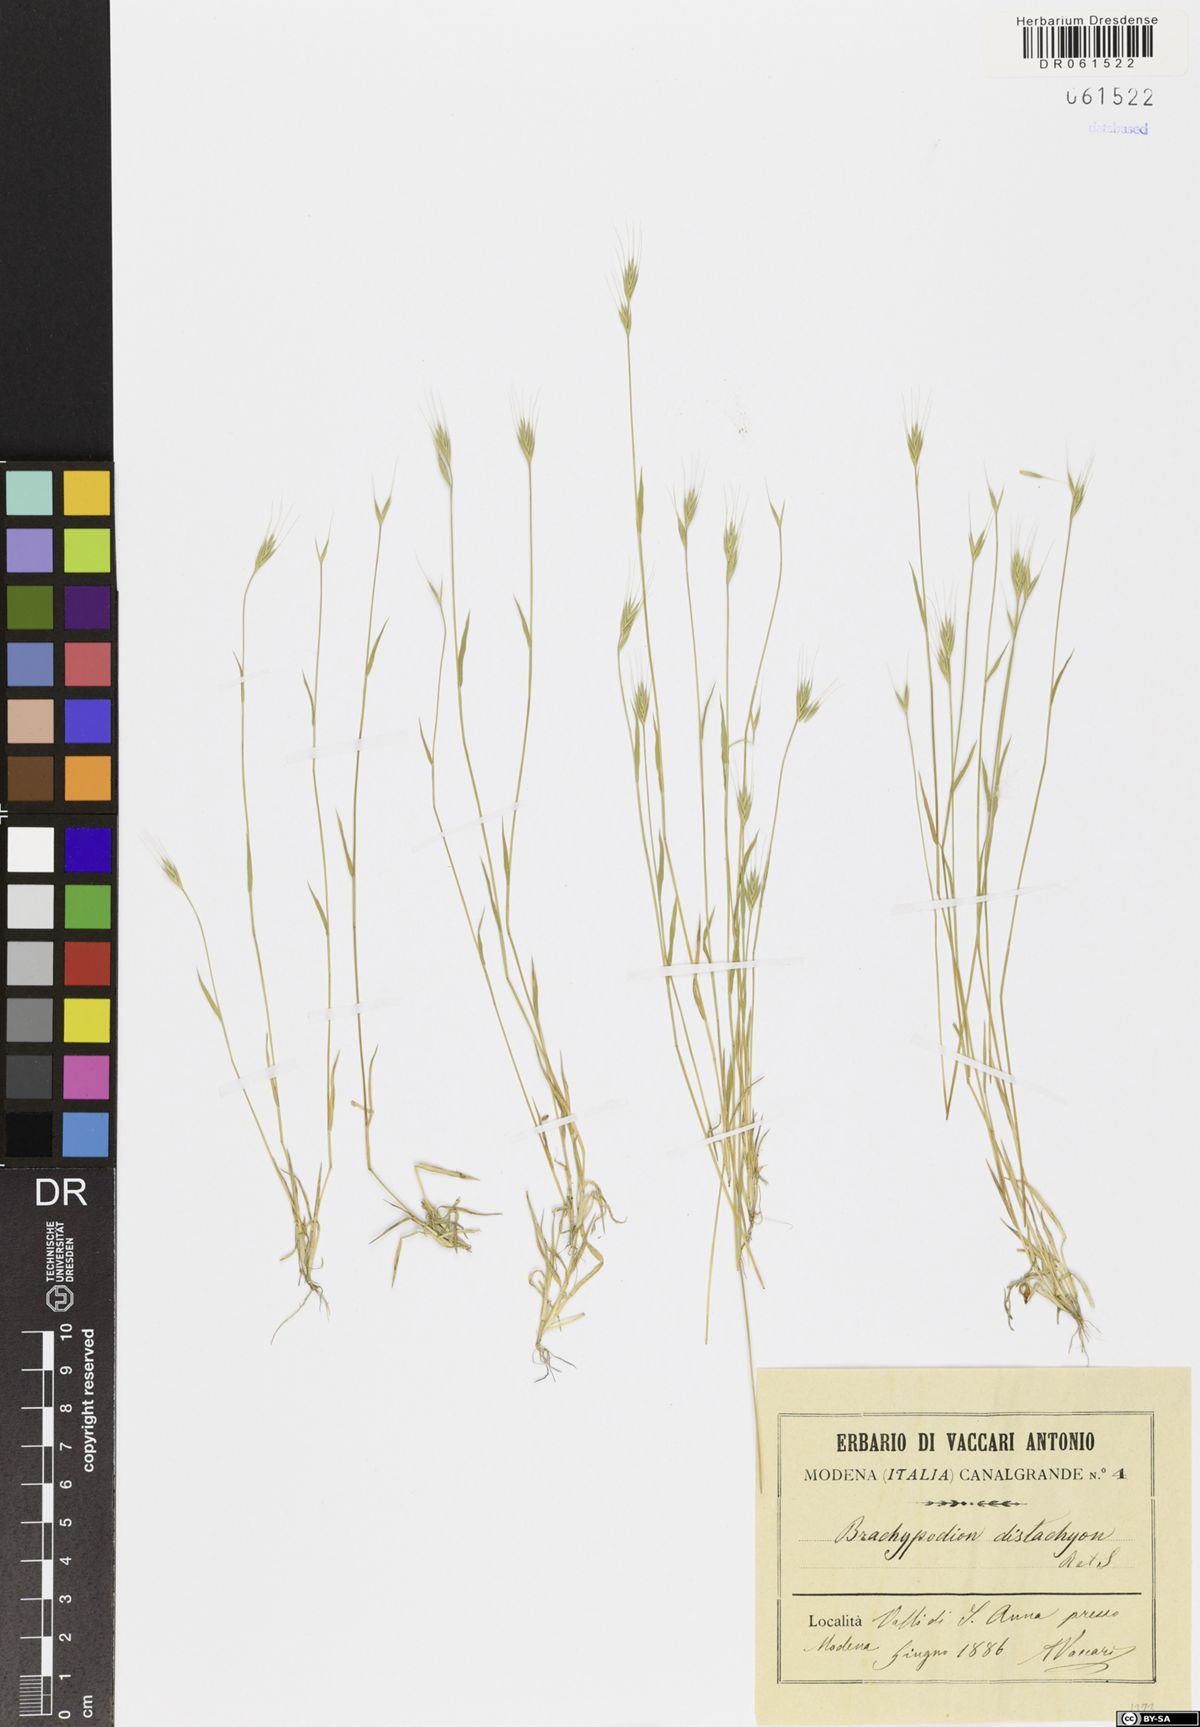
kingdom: Plantae
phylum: Tracheophyta
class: Liliopsida
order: Poales
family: Poaceae
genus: Brachypodium
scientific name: Brachypodium distachyon
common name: Stiff brome
